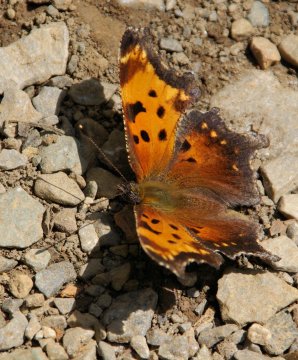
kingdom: Animalia
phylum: Arthropoda
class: Insecta
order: Lepidoptera
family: Nymphalidae
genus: Polygonia
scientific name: Polygonia progne
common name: Gray Comma
